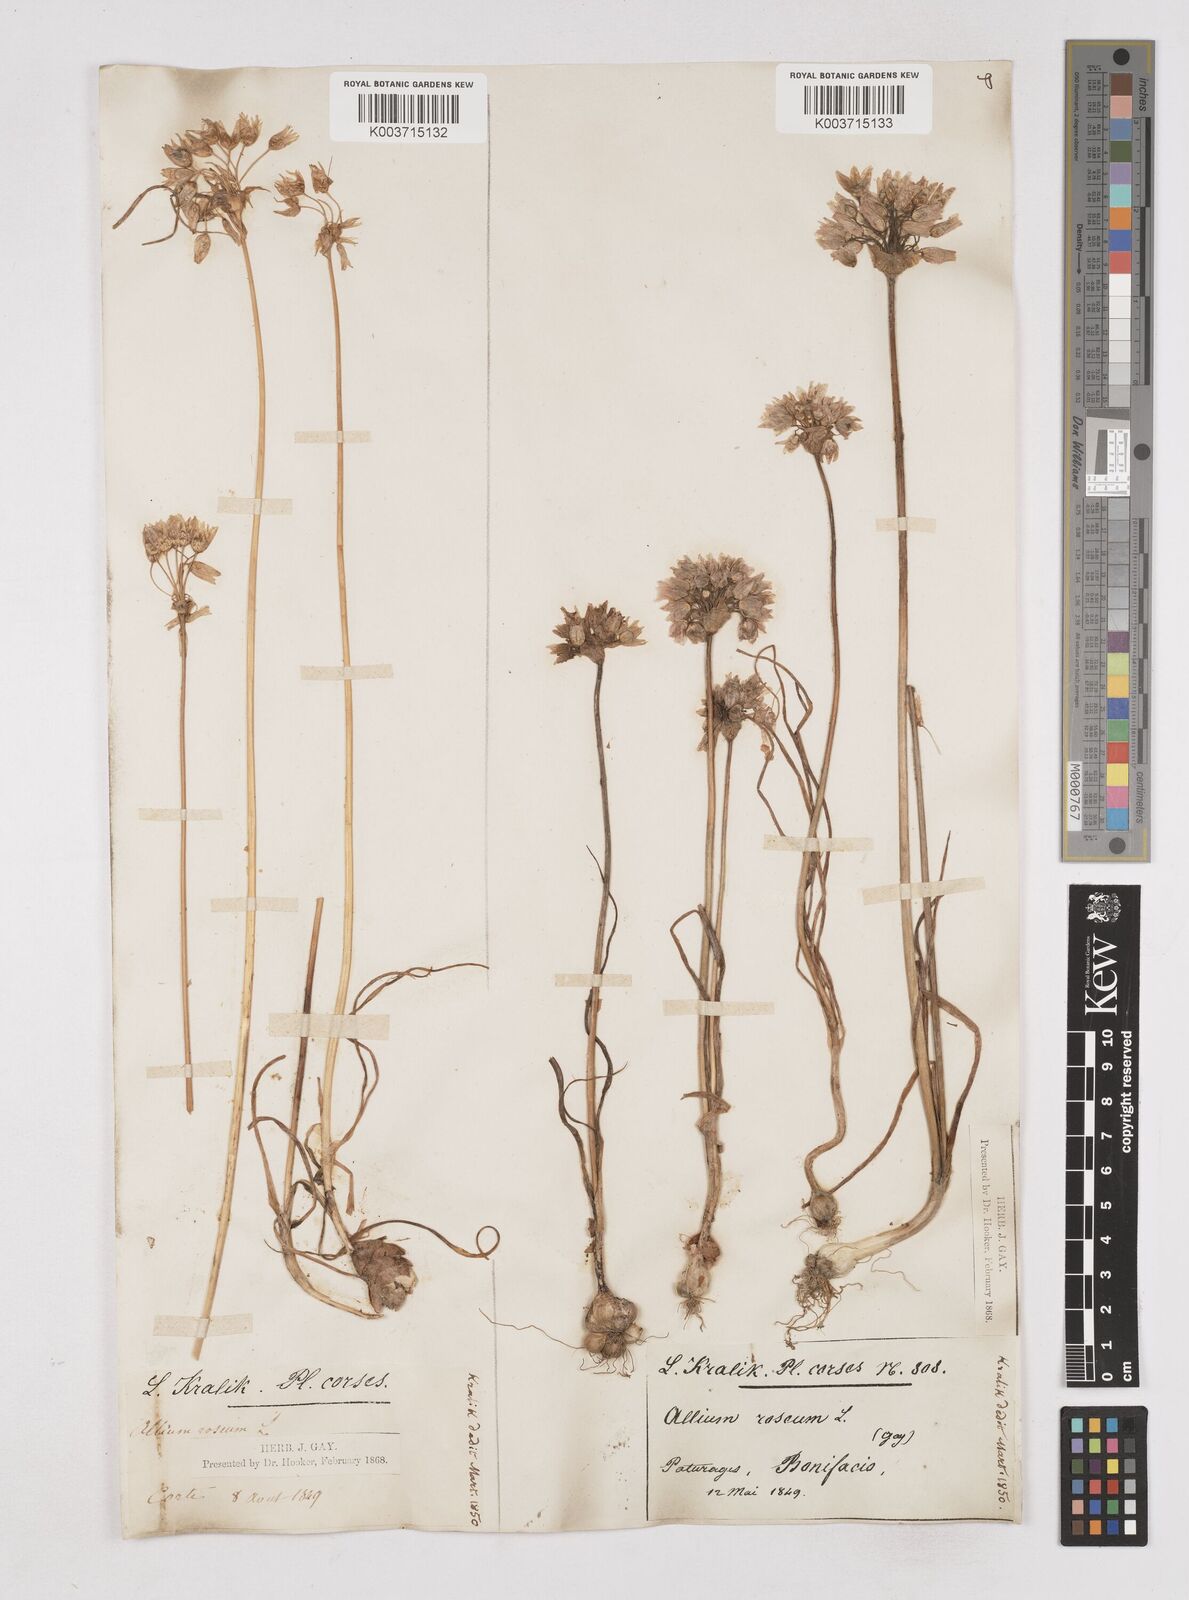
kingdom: Plantae
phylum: Tracheophyta
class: Liliopsida
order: Asparagales
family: Amaryllidaceae
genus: Allium
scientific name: Allium roseum
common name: Rosy garlic
